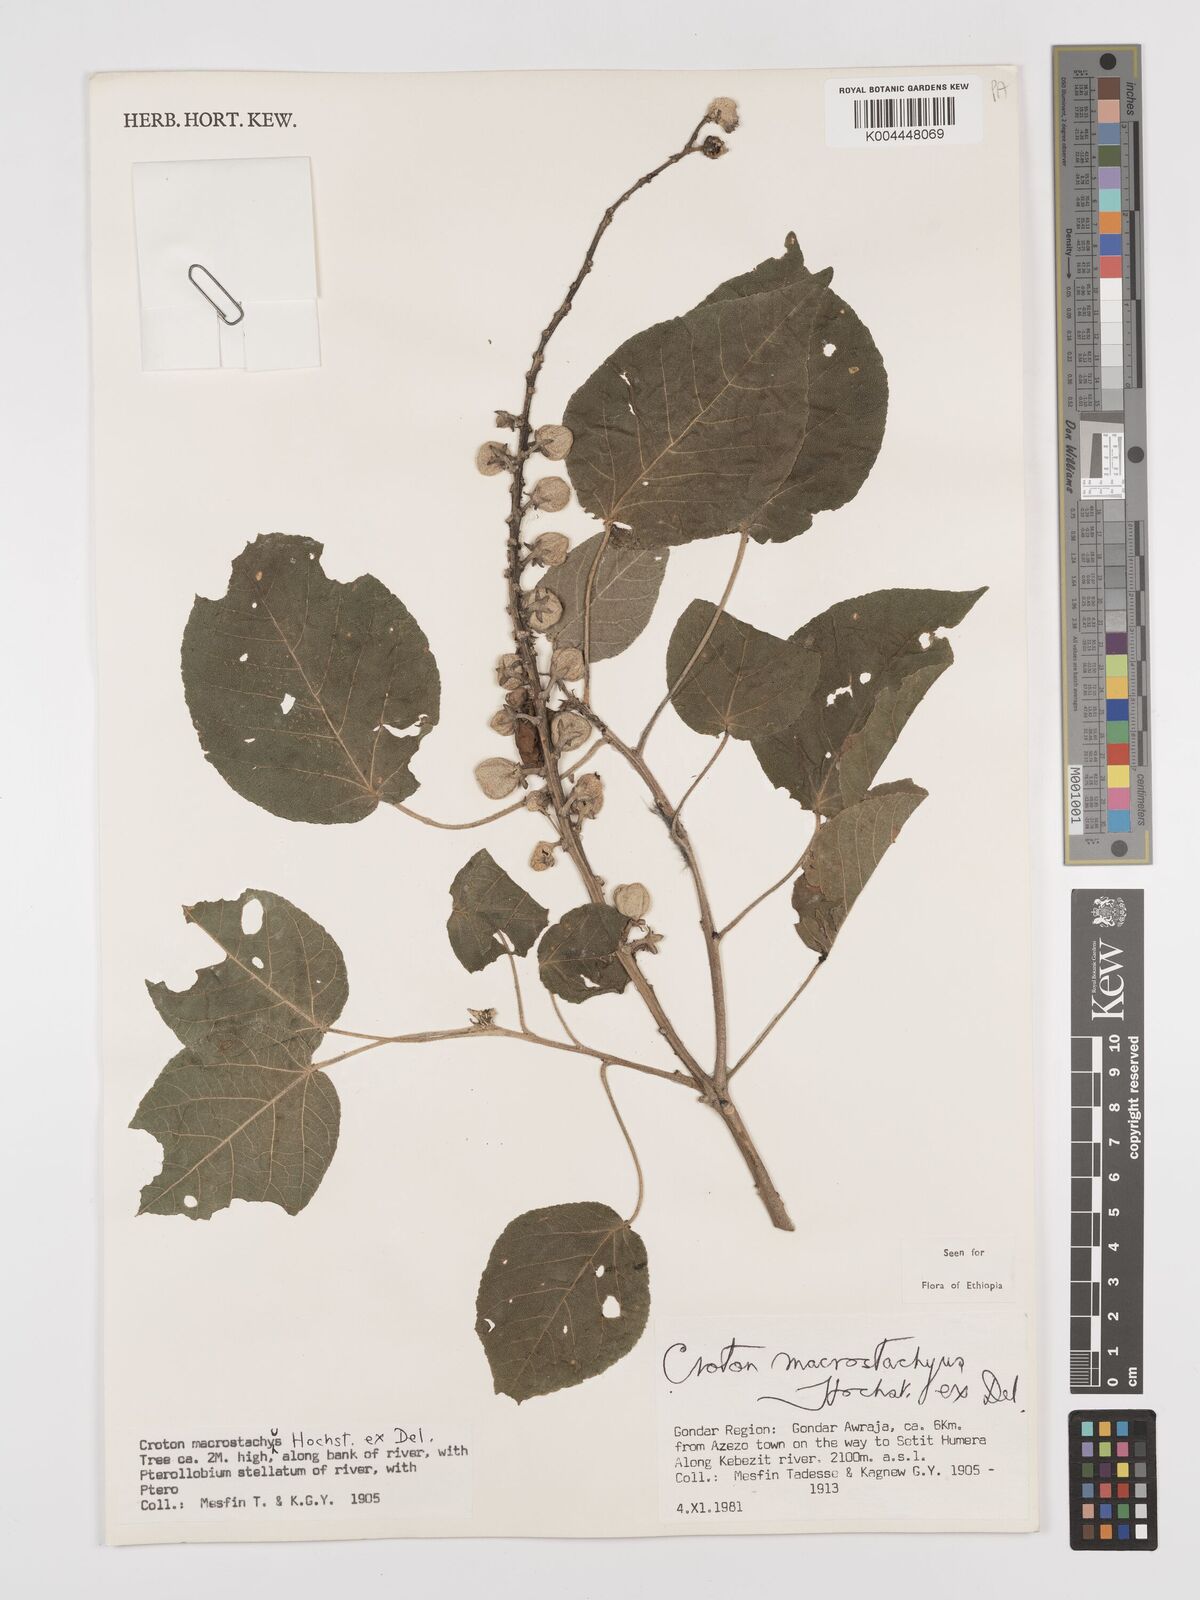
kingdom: Plantae
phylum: Tracheophyta
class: Magnoliopsida
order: Malpighiales
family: Euphorbiaceae
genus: Croton
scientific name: Croton macrostachyus
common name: Mutundu
